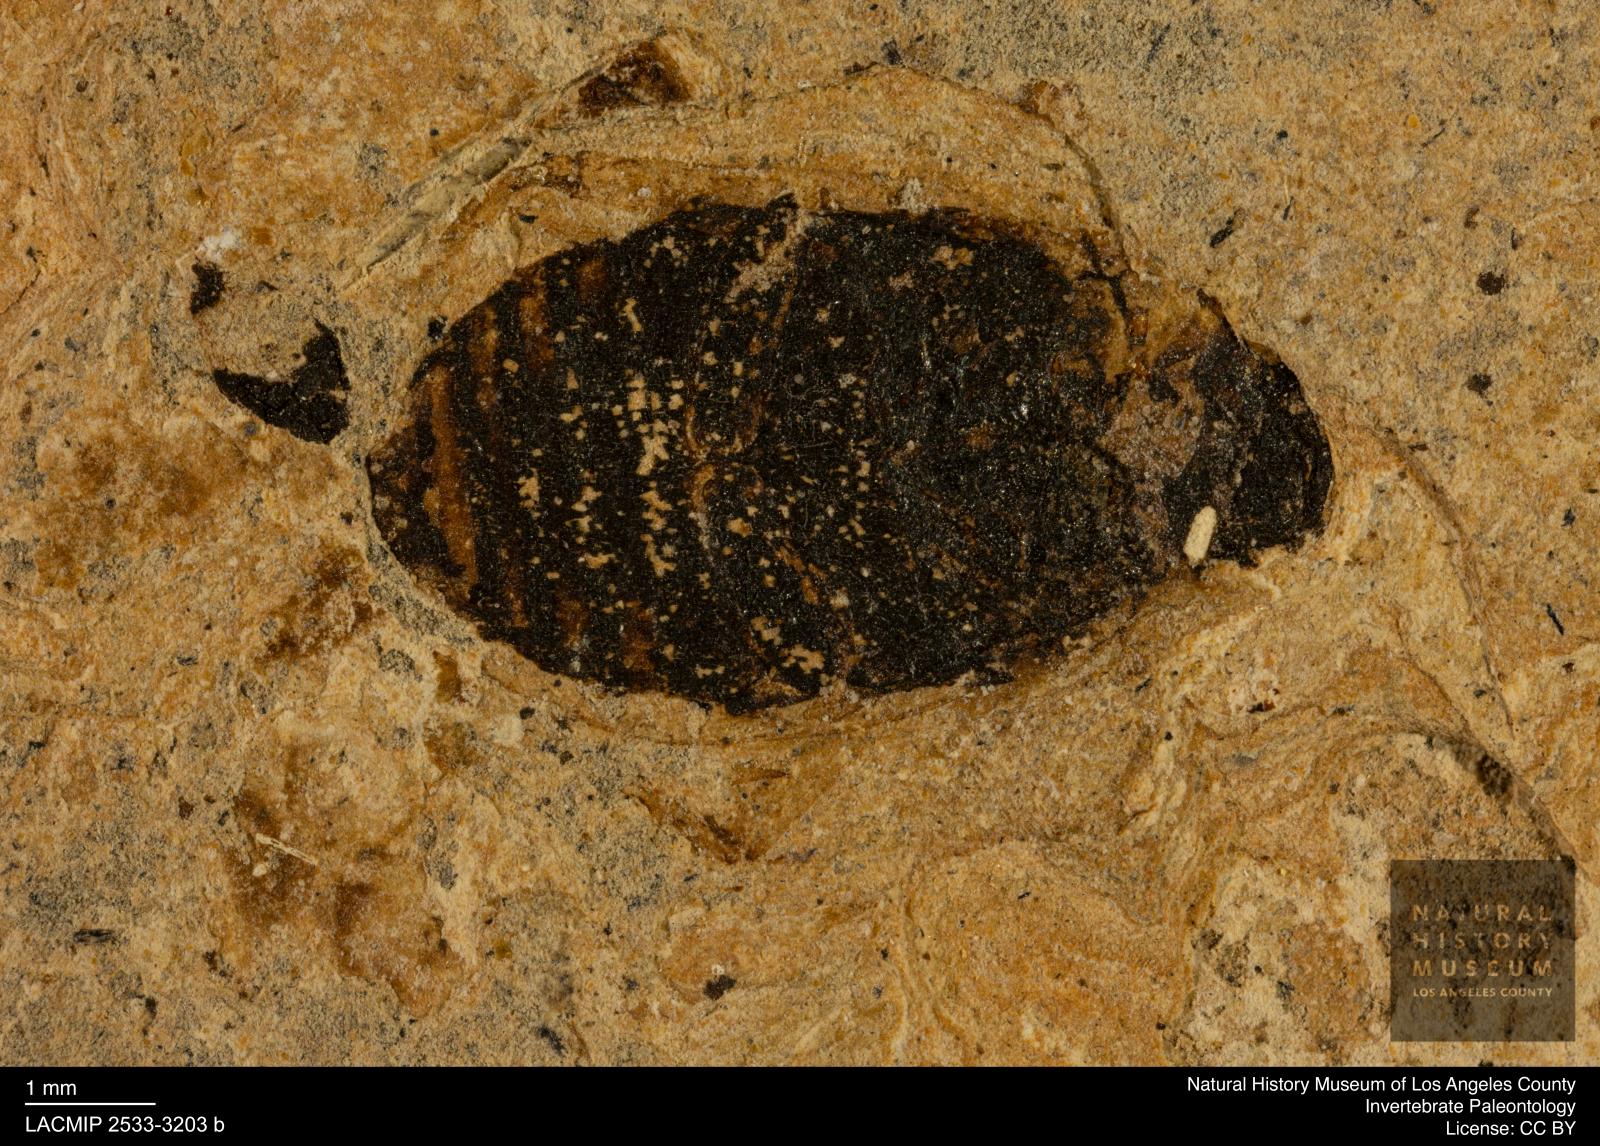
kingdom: Animalia
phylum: Arthropoda
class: Insecta
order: Coleoptera
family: Hydrophilidae
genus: Berosus
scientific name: Berosus morticinus
